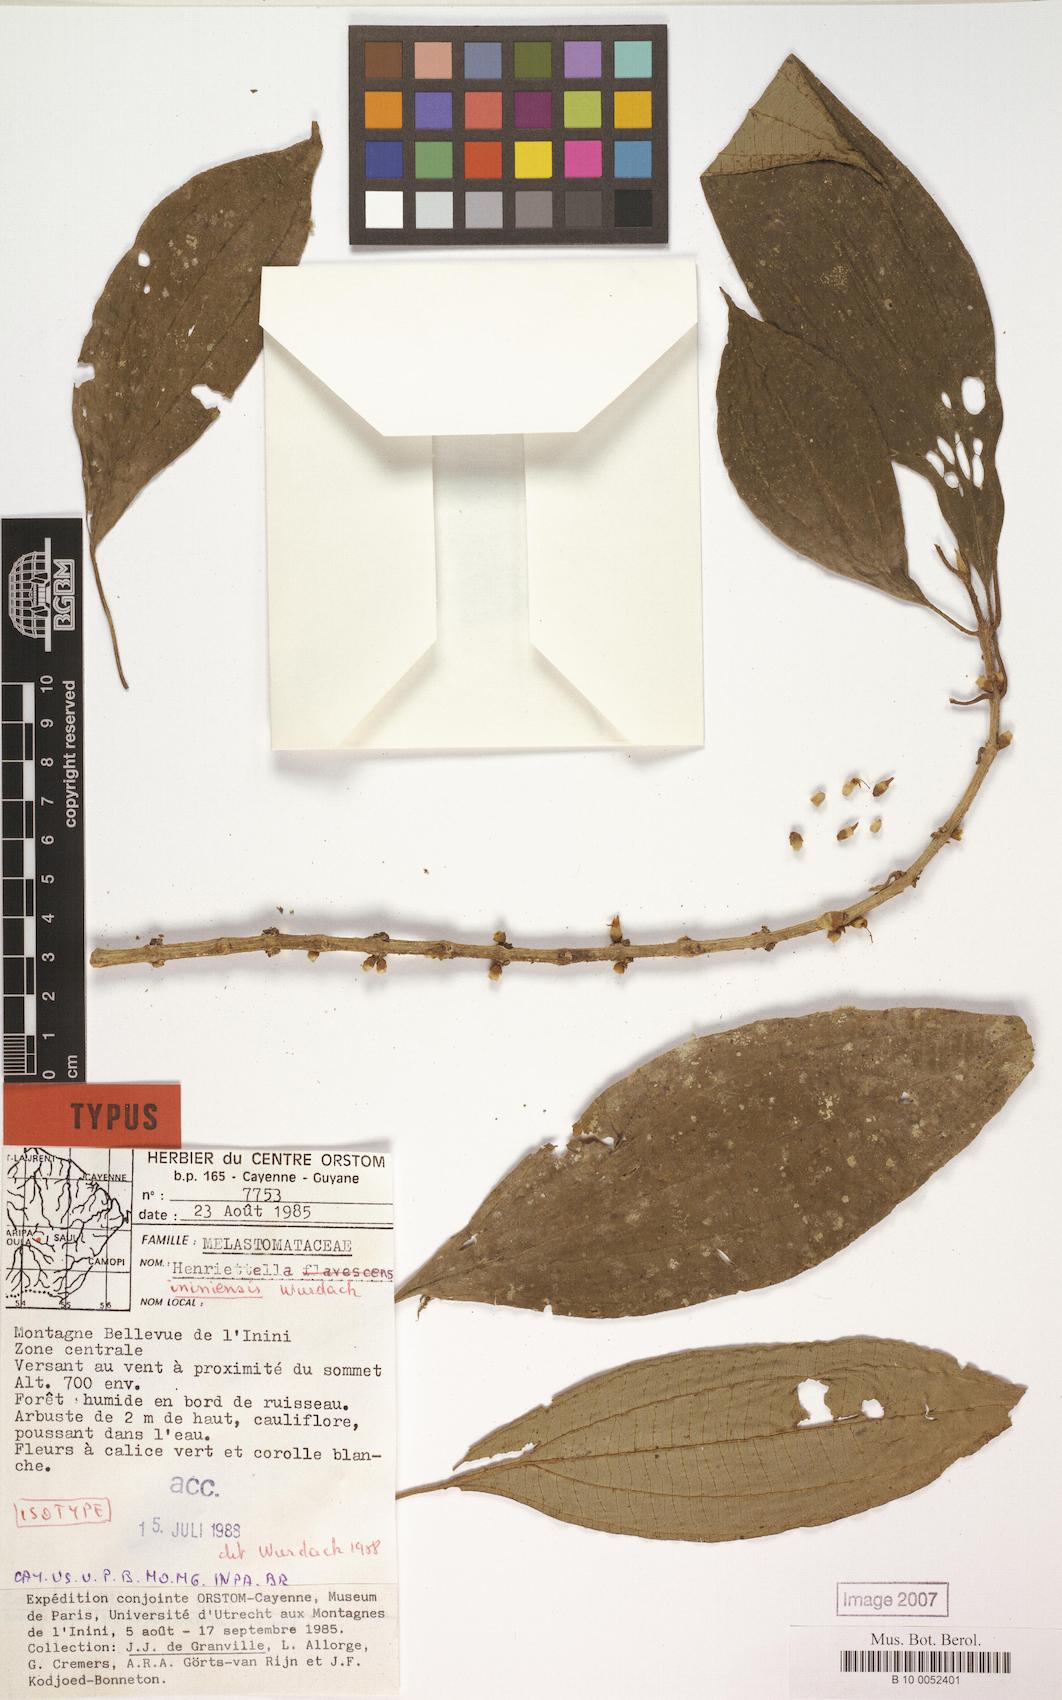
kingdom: Plantae
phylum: Tracheophyta
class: Magnoliopsida
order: Myrtales
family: Melastomataceae
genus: Henriettea
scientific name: Henriettea ininiensis
